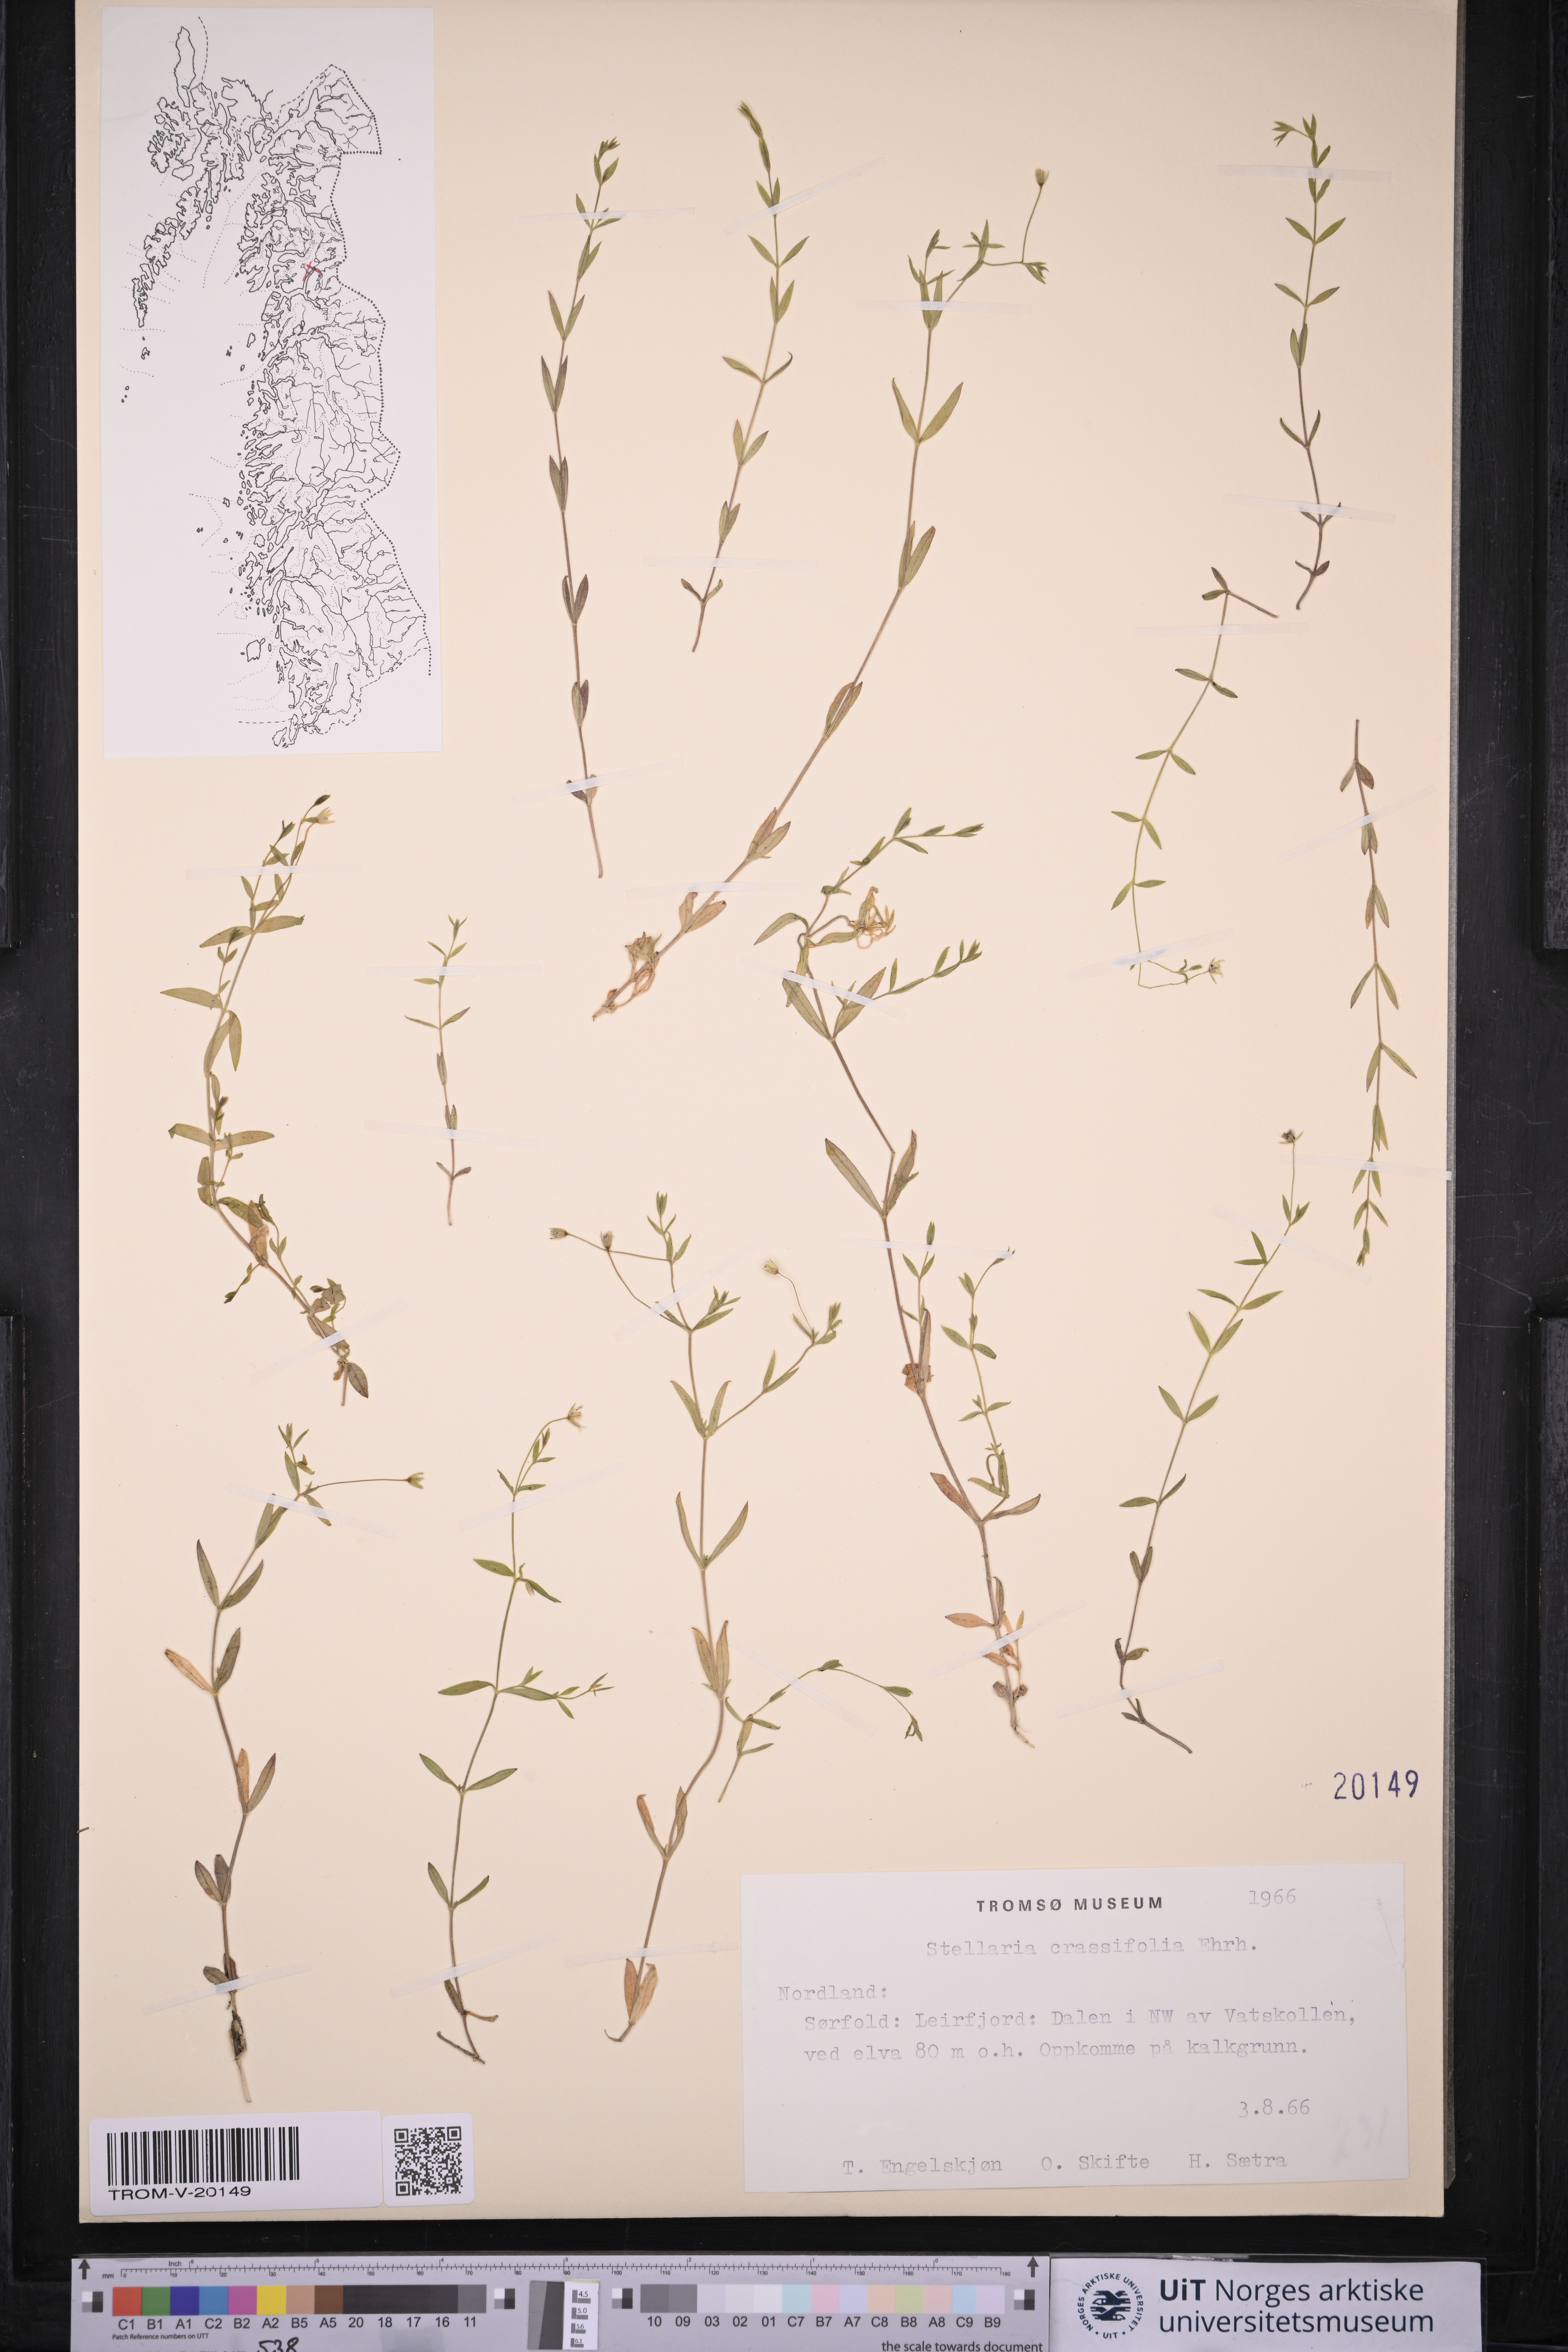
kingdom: Plantae
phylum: Tracheophyta
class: Magnoliopsida
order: Caryophyllales
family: Caryophyllaceae
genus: Stellaria
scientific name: Stellaria crassifolia
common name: Fleshy starwort
